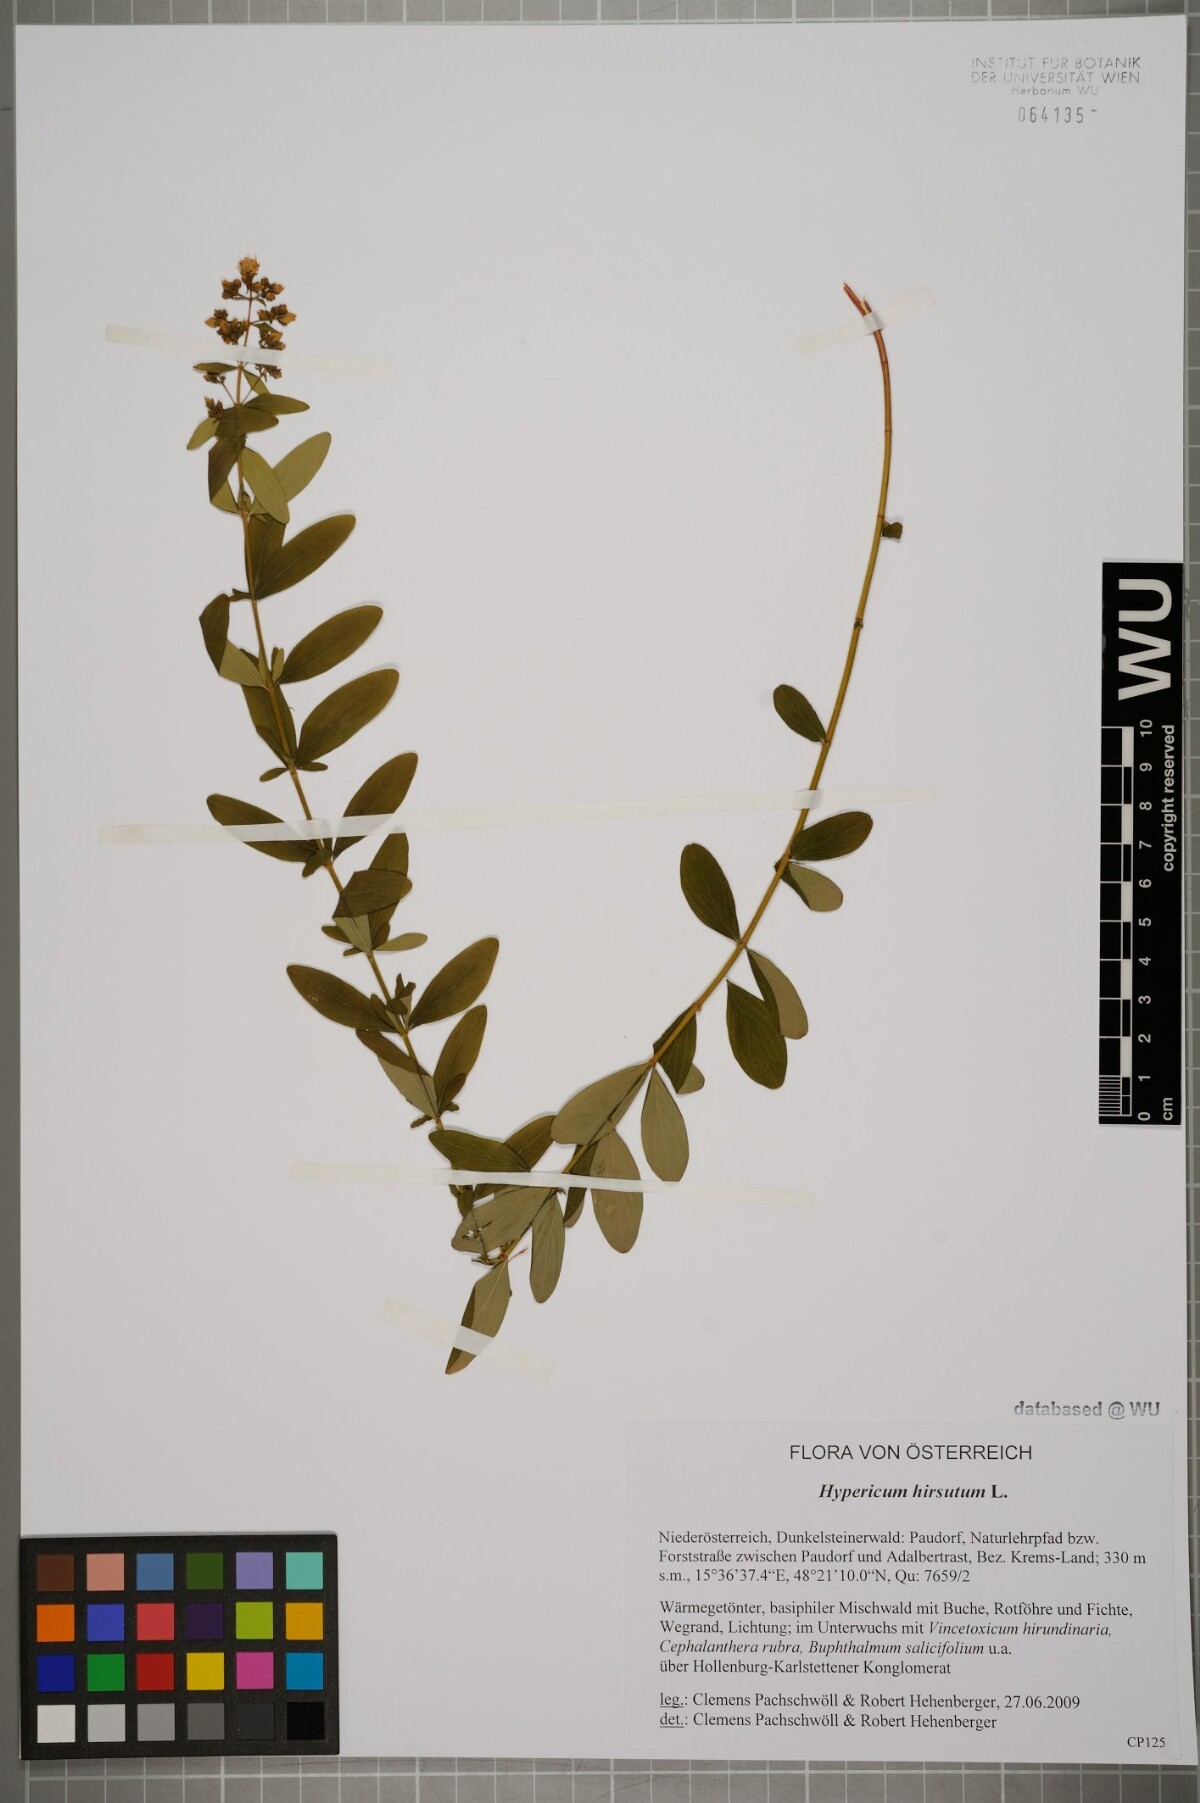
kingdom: Plantae
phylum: Tracheophyta
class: Magnoliopsida
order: Malpighiales
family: Hypericaceae
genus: Hypericum
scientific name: Hypericum hirsutum
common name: Hairy st. john's-wort
